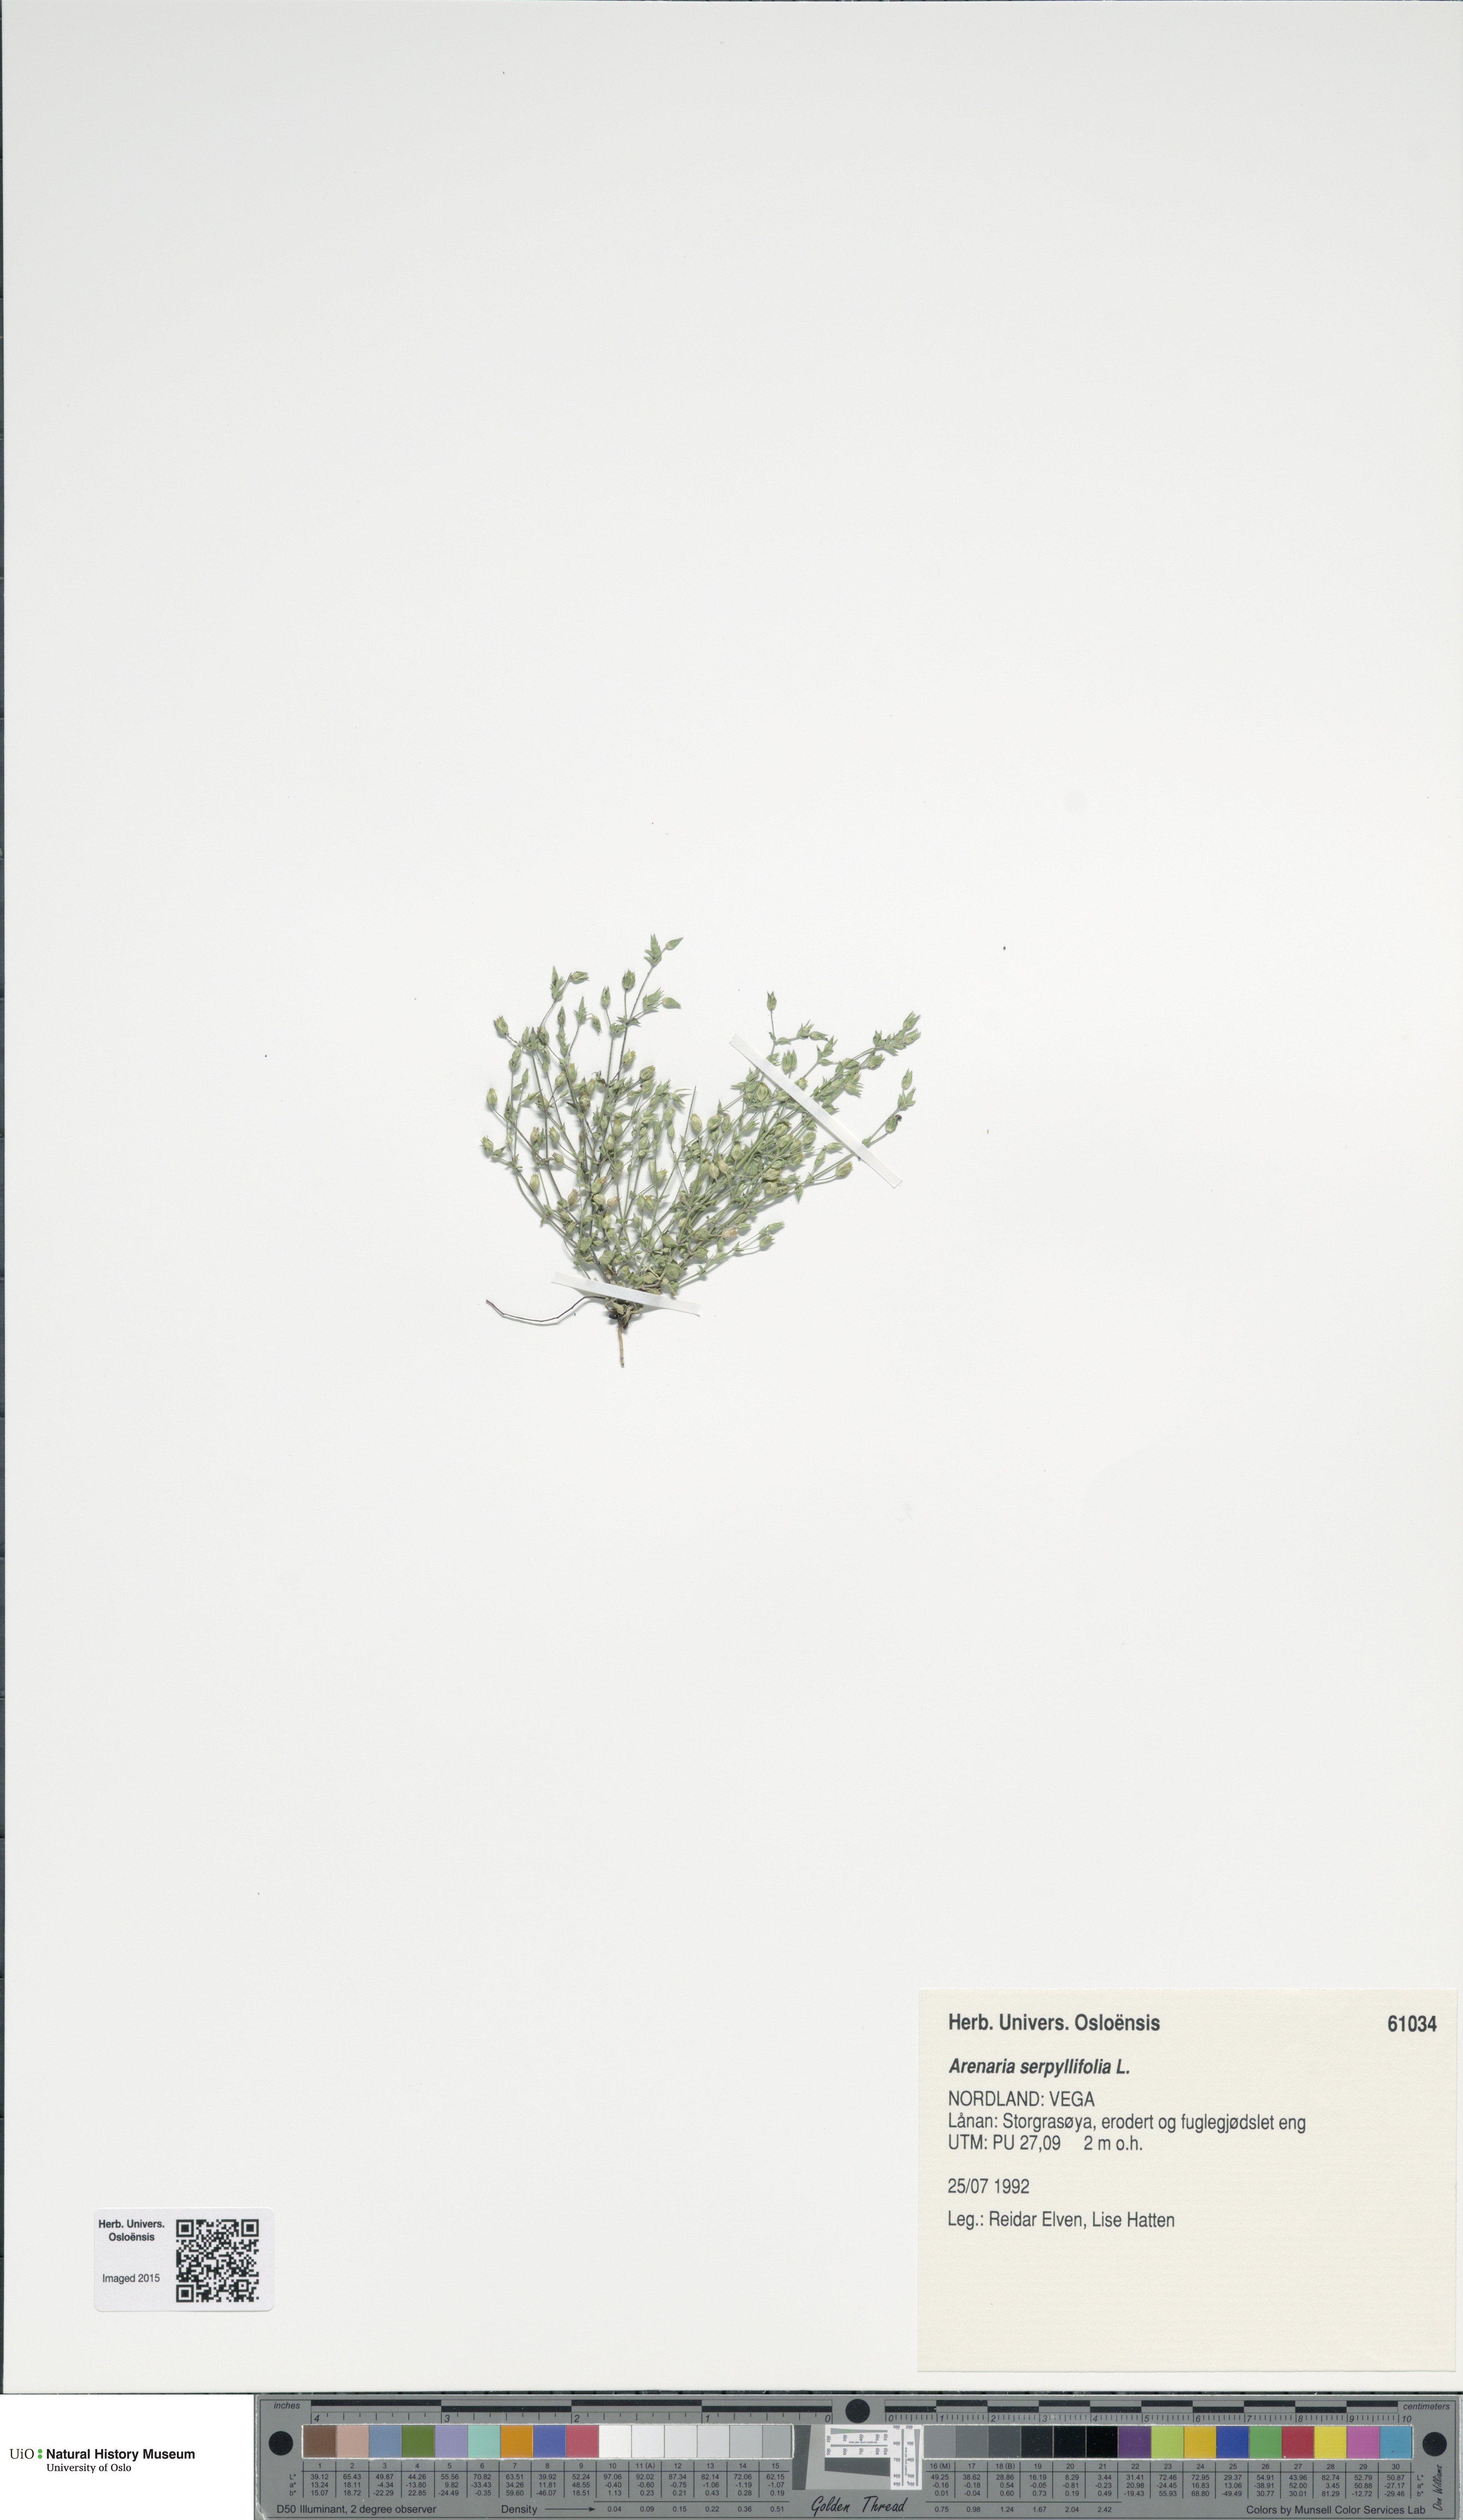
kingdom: Plantae
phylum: Tracheophyta
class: Magnoliopsida
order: Caryophyllales
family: Caryophyllaceae
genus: Arenaria
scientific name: Arenaria serpyllifolia
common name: Thyme-leaved sandwort
